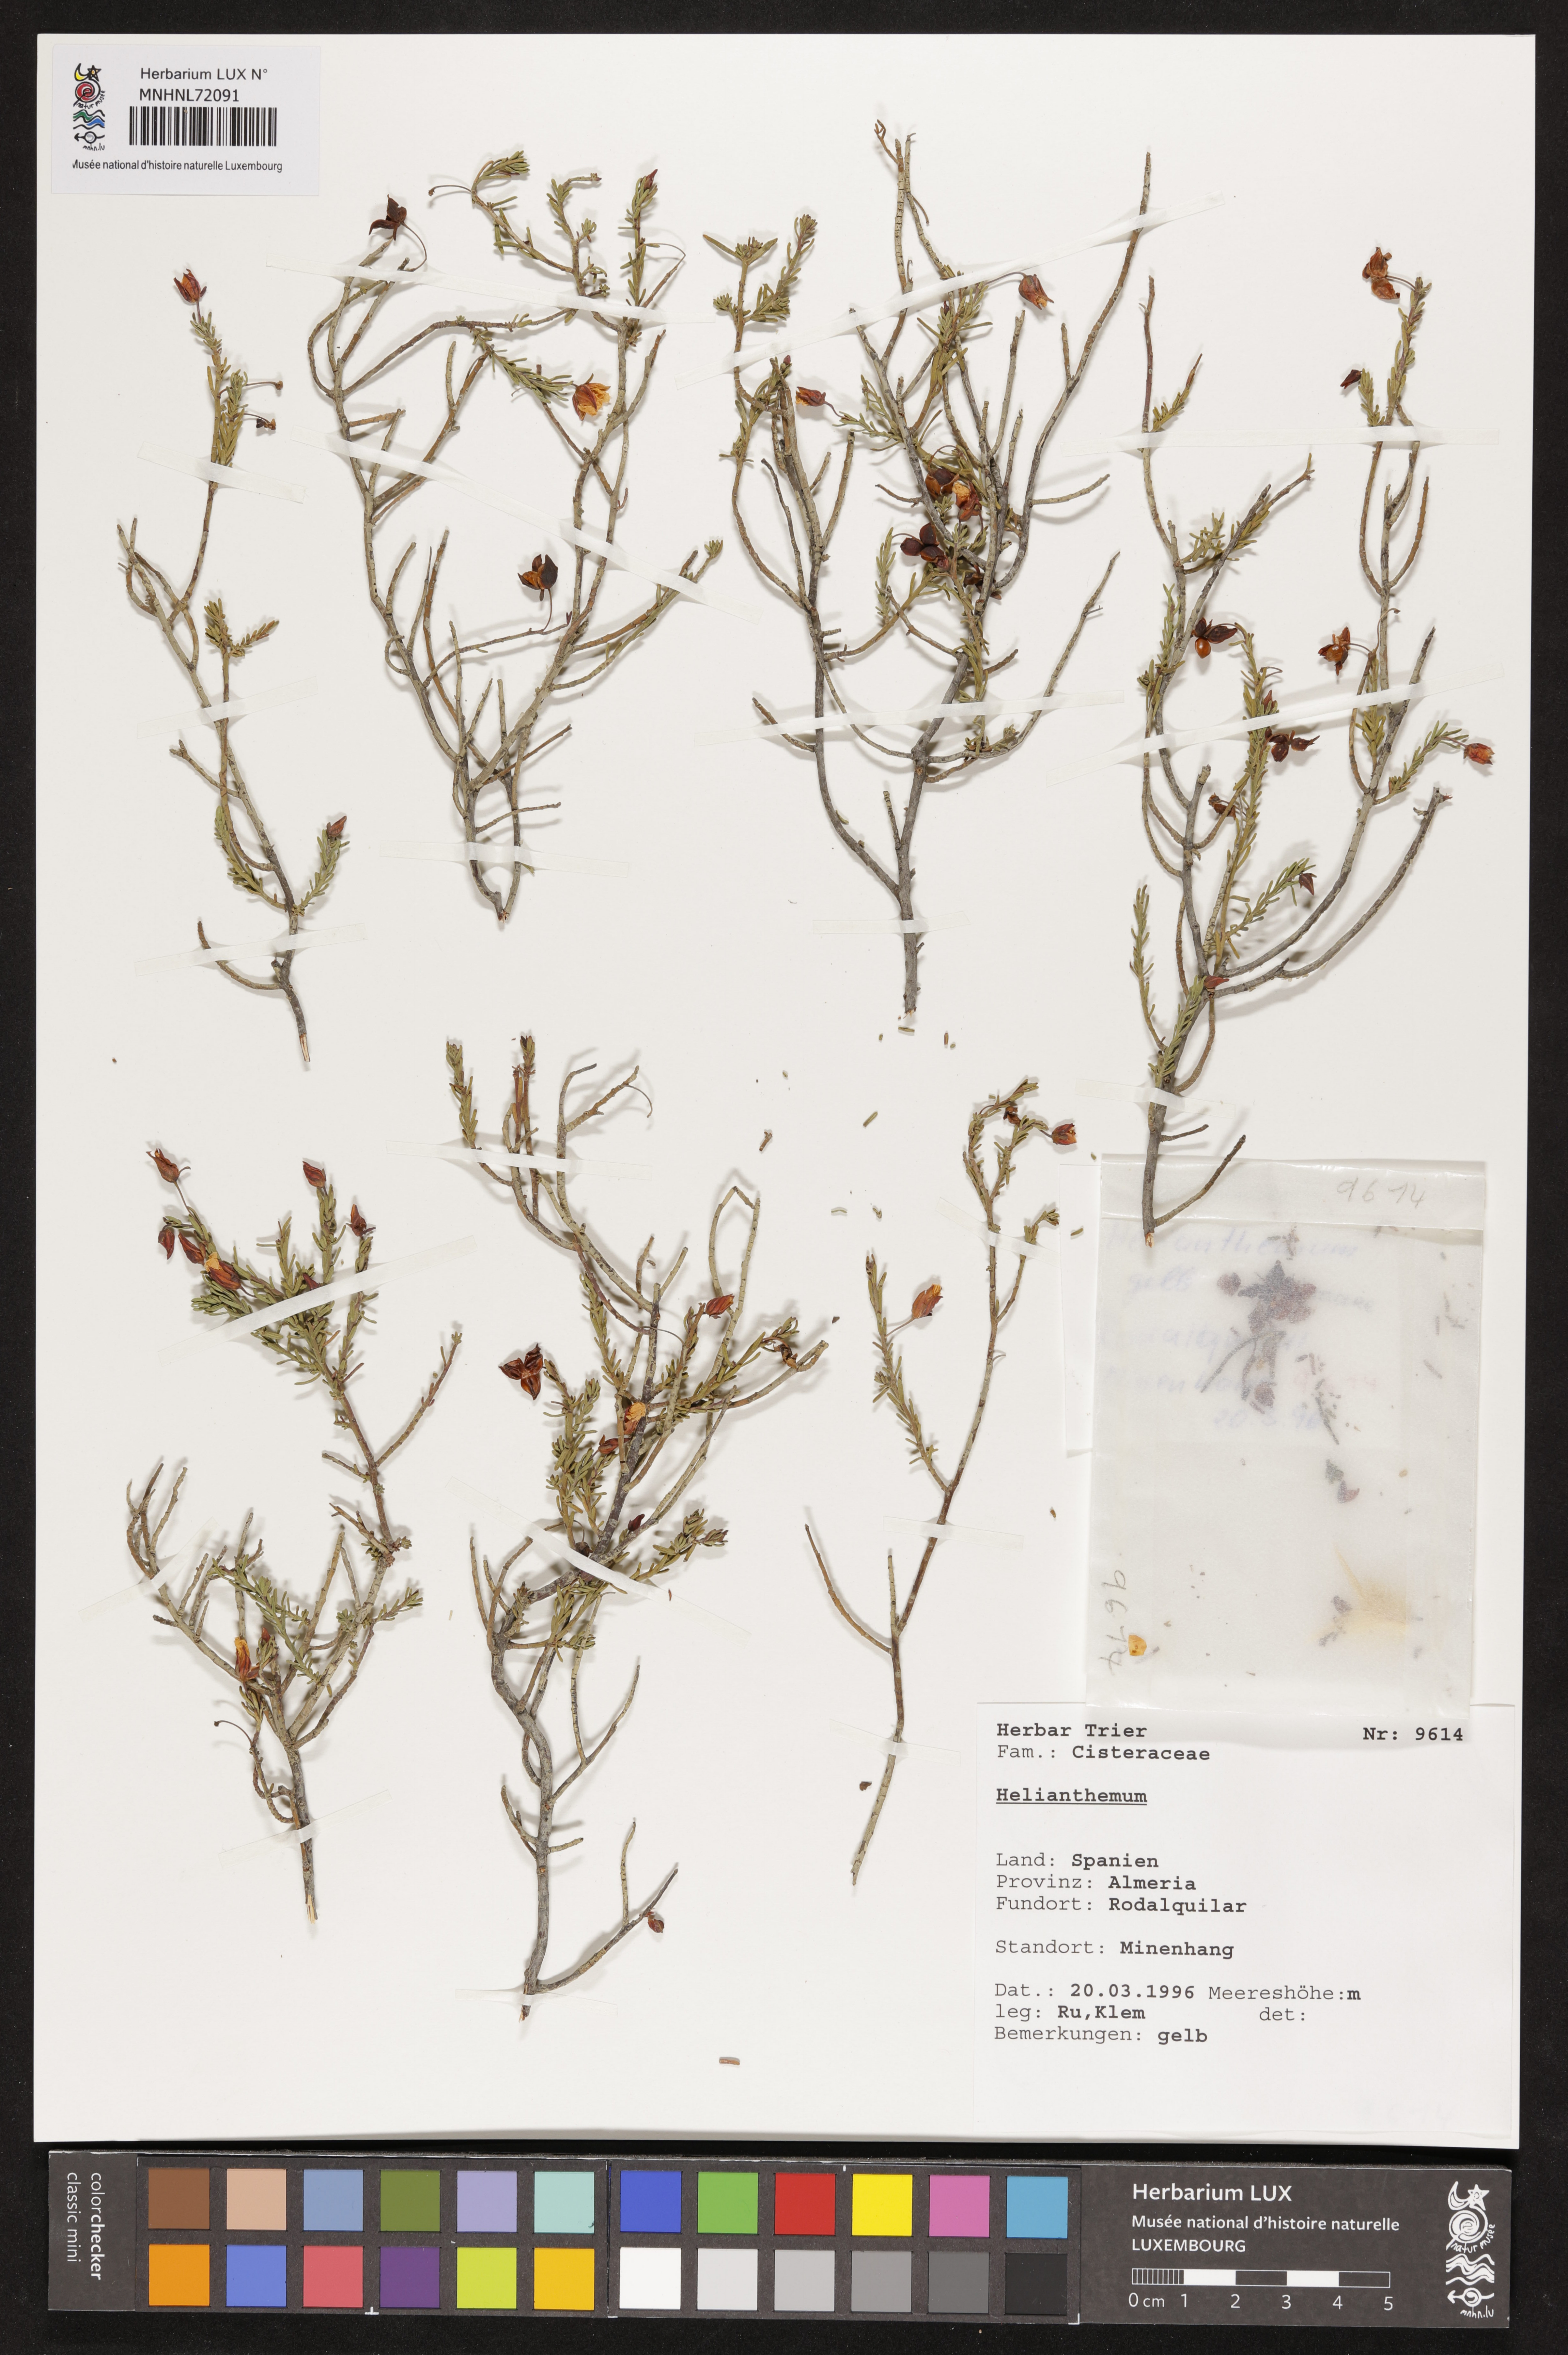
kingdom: Plantae
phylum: Tracheophyta
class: Magnoliopsida
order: Malvales
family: Cistaceae
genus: Helianthemum
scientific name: Helianthemum
